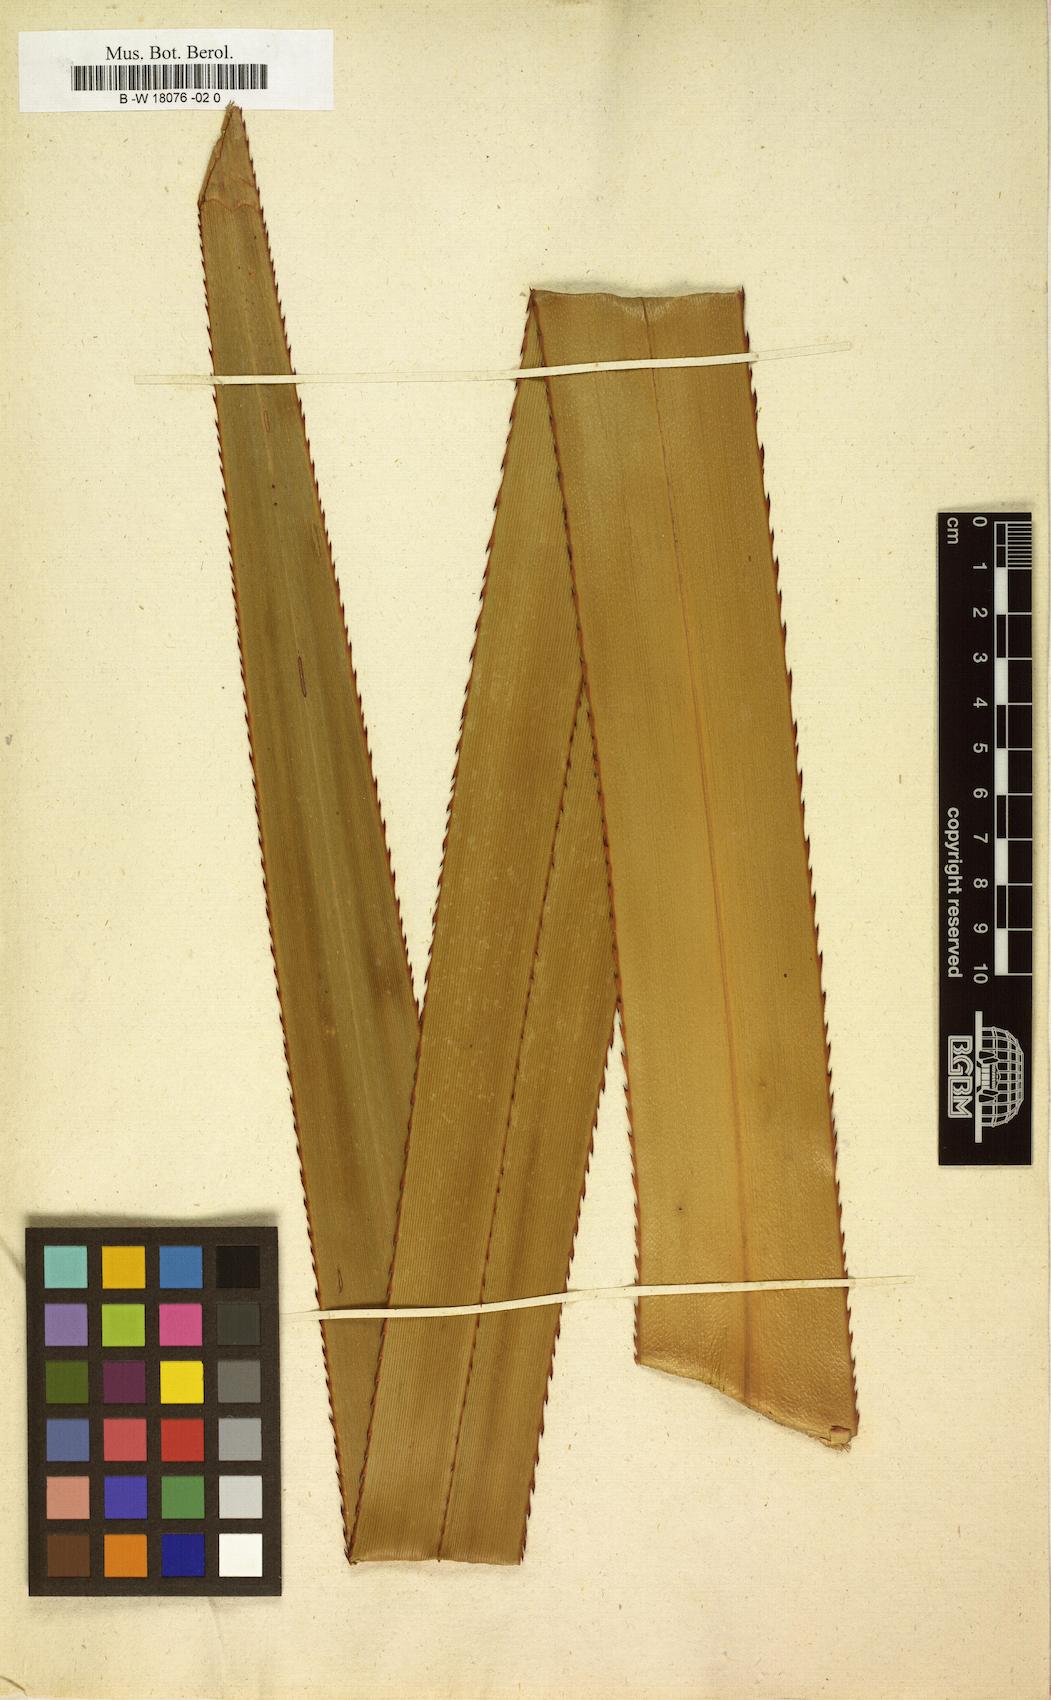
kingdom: Plantae
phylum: Tracheophyta
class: Liliopsida
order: Pandanales
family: Pandanaceae
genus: Pandanus
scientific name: Pandanus utilis
